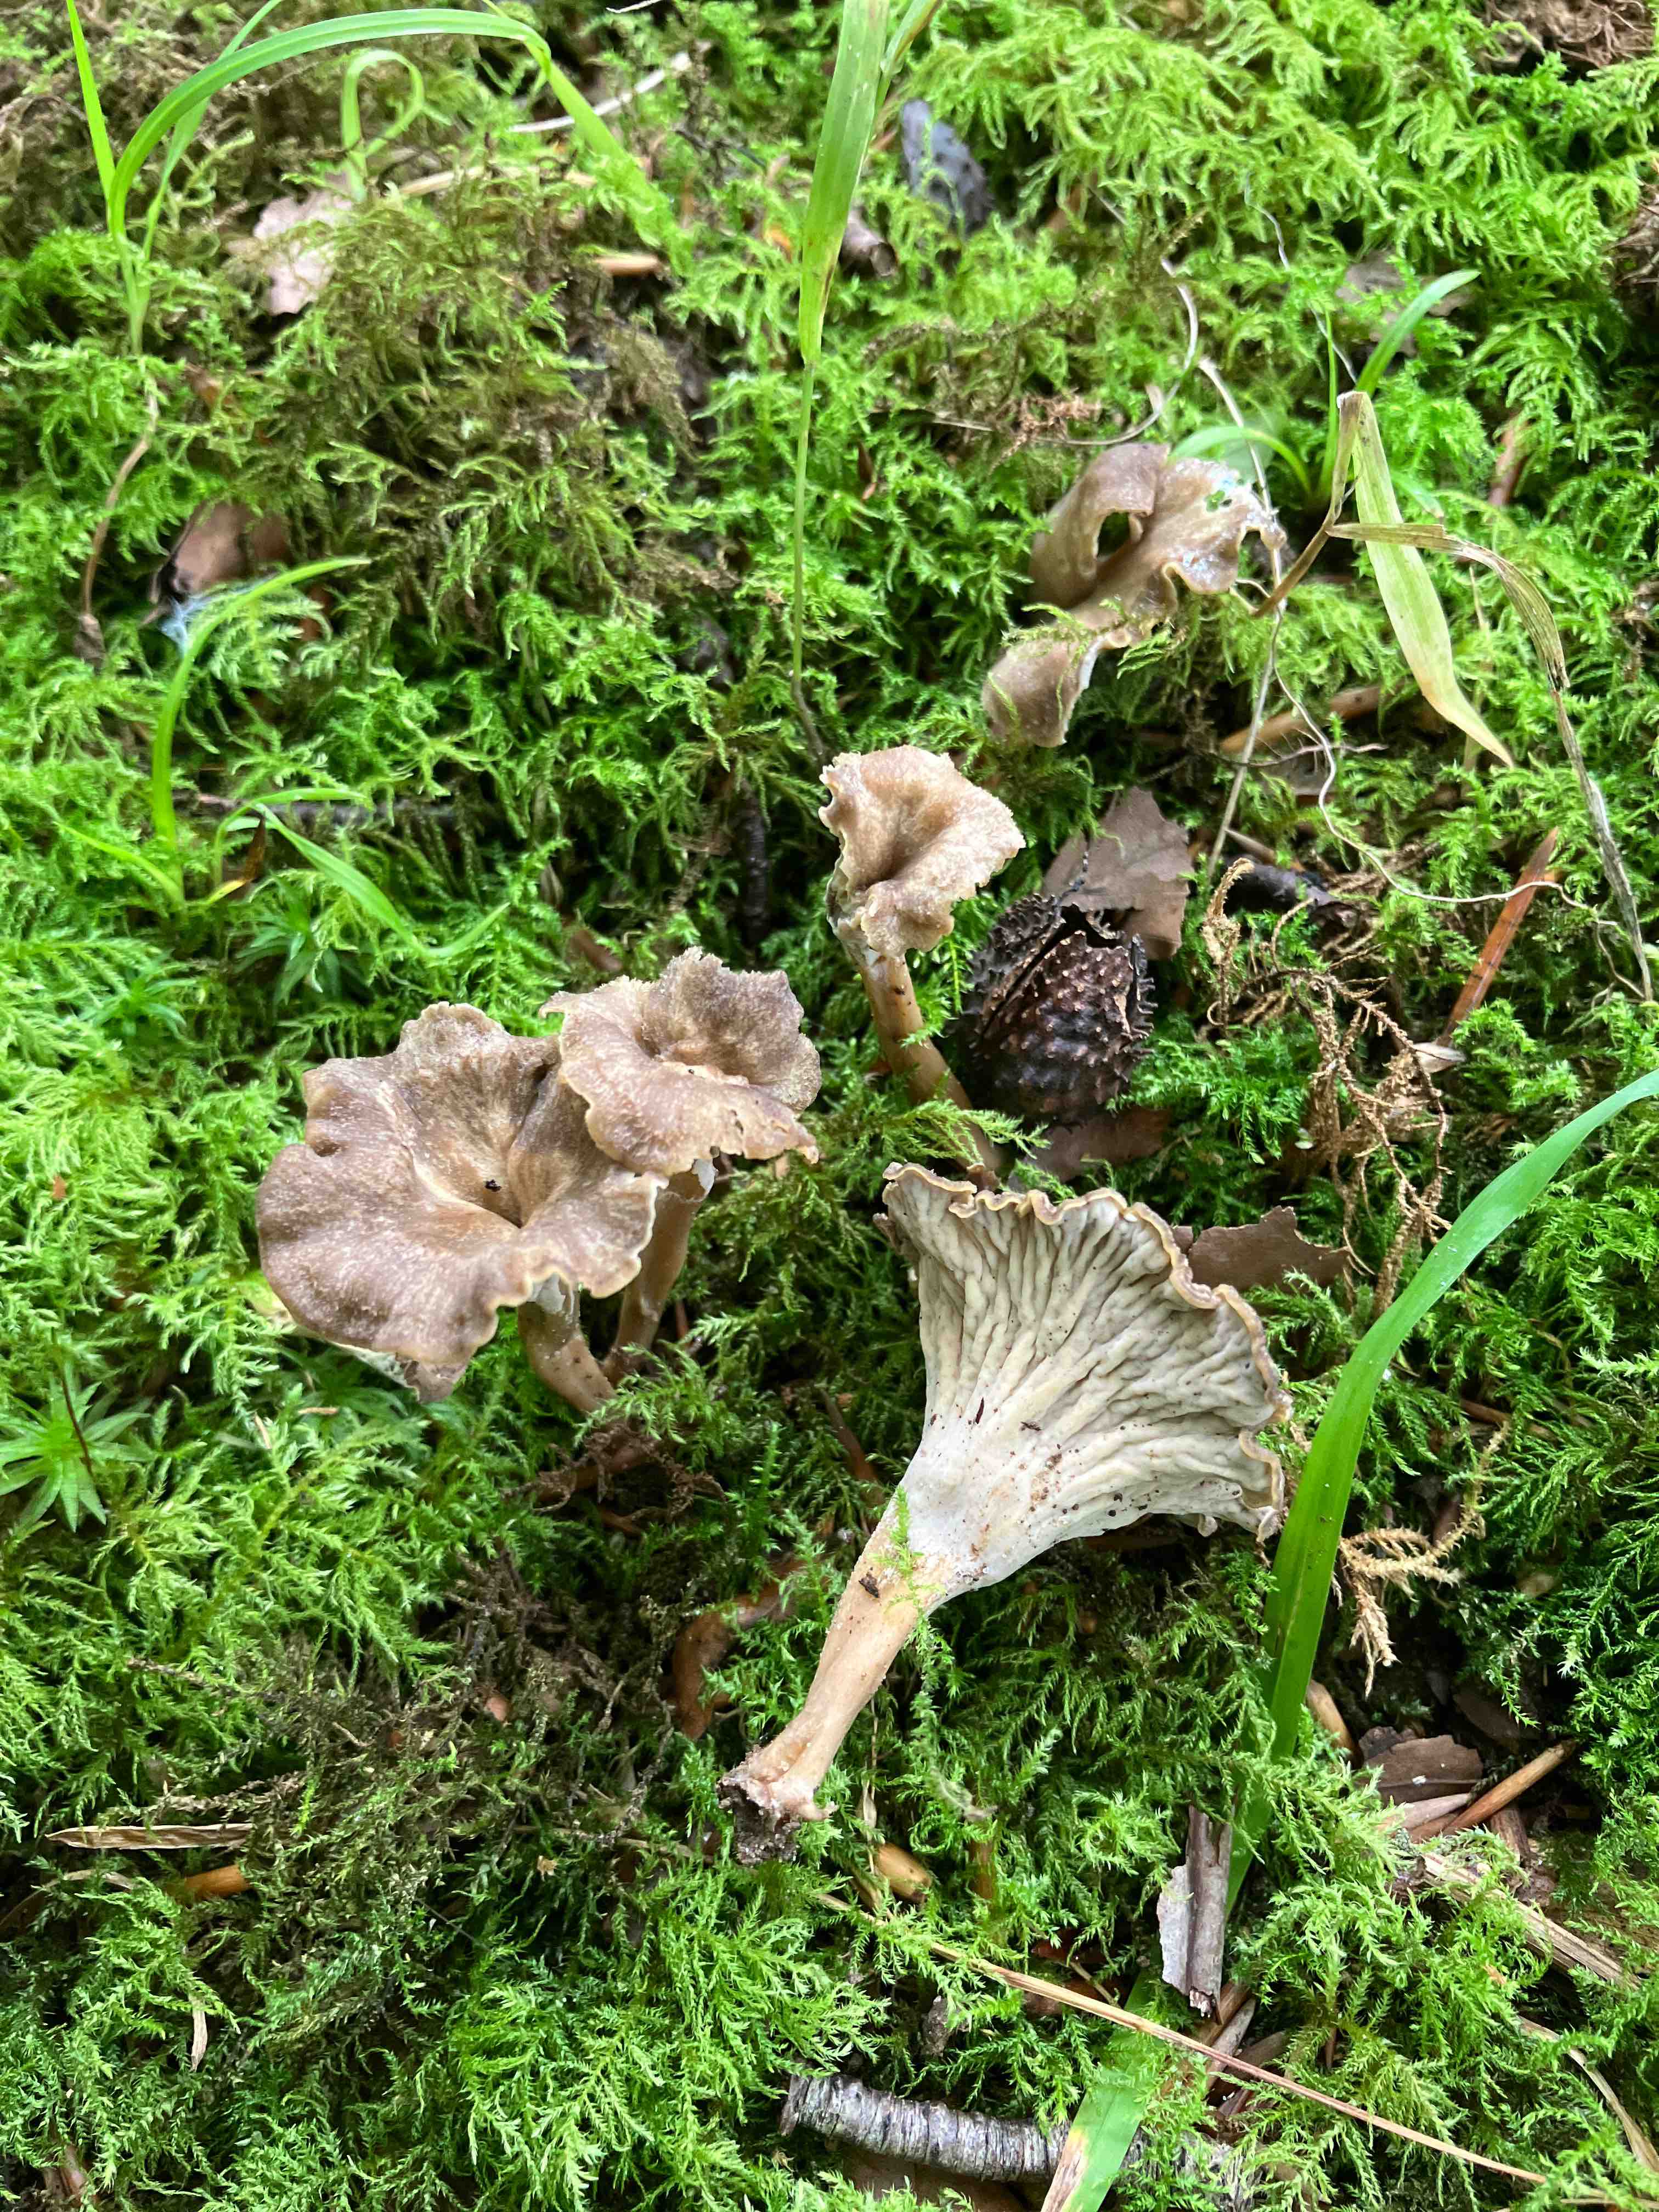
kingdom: Fungi
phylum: Basidiomycota
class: Agaricomycetes
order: Cantharellales
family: Hydnaceae
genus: Craterellus
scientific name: Craterellus undulatus
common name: liden kantarel
